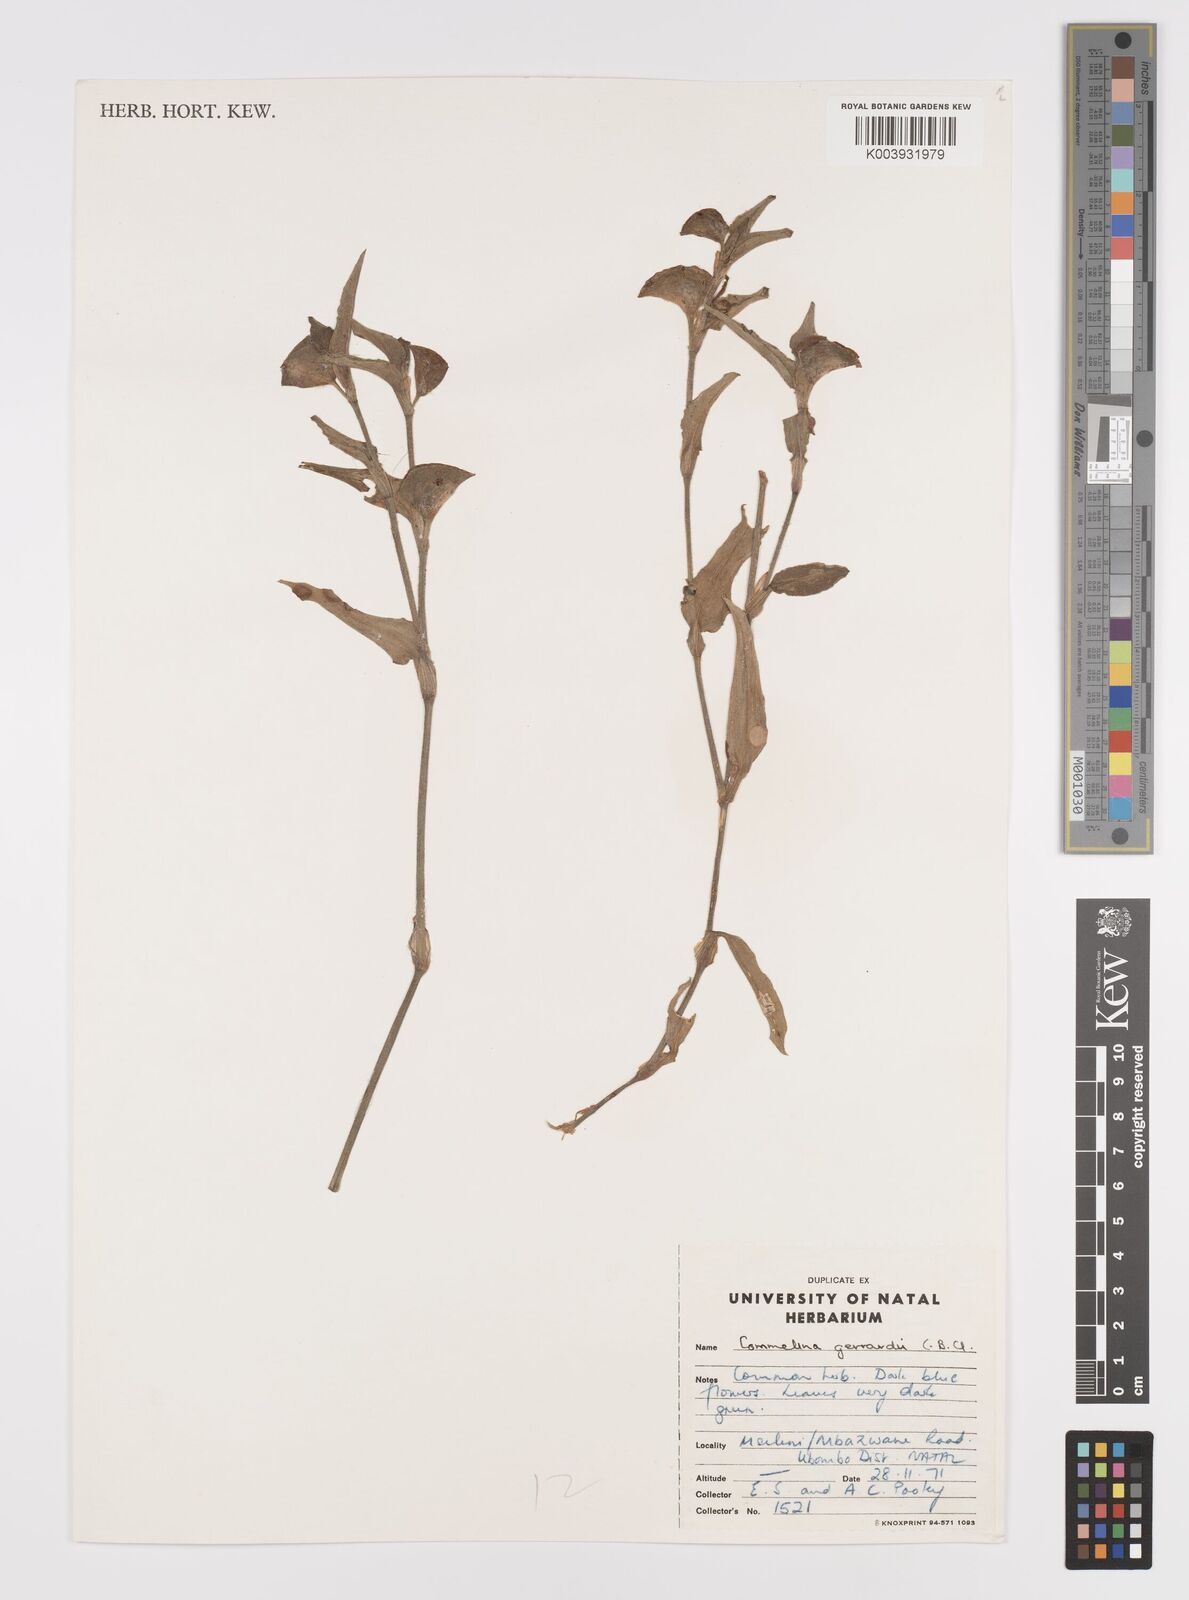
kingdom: Plantae
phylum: Tracheophyta
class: Liliopsida
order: Commelinales
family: Commelinaceae
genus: Commelina
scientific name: Commelina erecta
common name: Blousel blommetjie
